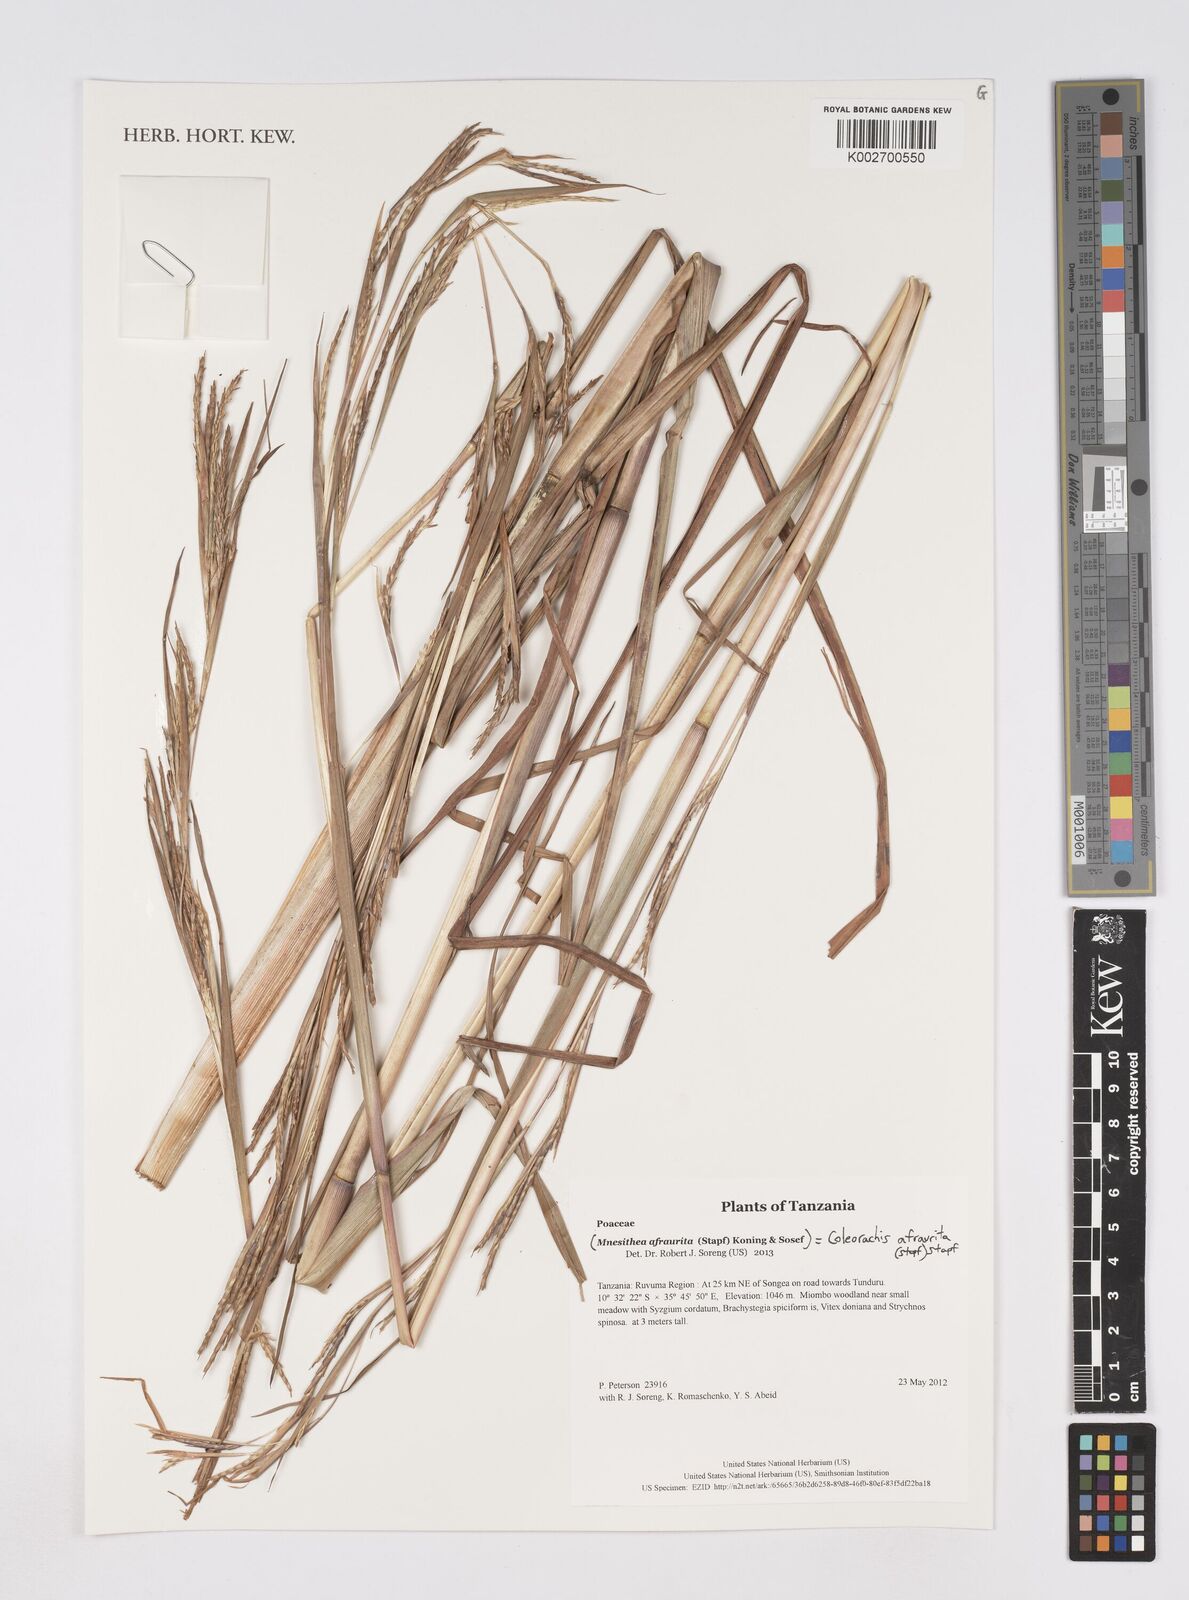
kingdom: Plantae
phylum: Tracheophyta
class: Liliopsida
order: Poales
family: Poaceae
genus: Rottboellia
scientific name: Rottboellia afraurita
